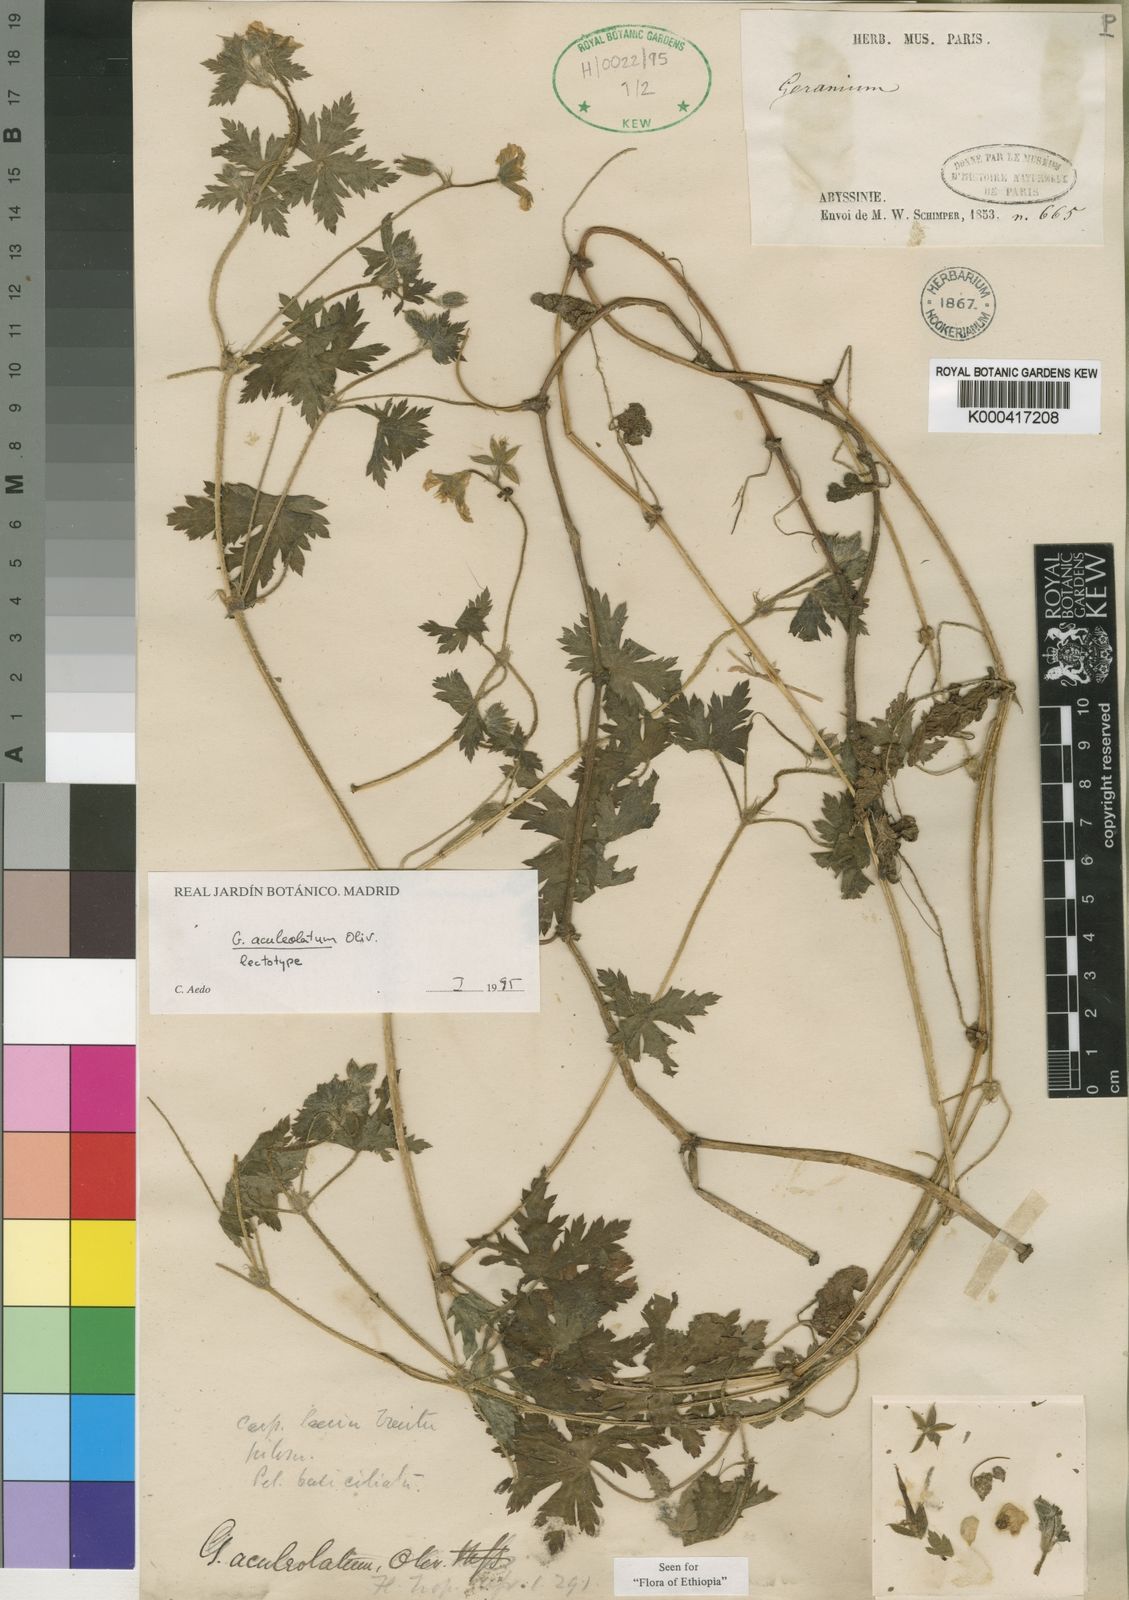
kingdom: Plantae
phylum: Tracheophyta
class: Magnoliopsida
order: Geraniales
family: Geraniaceae
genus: Geranium
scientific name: Geranium aculeolatum
